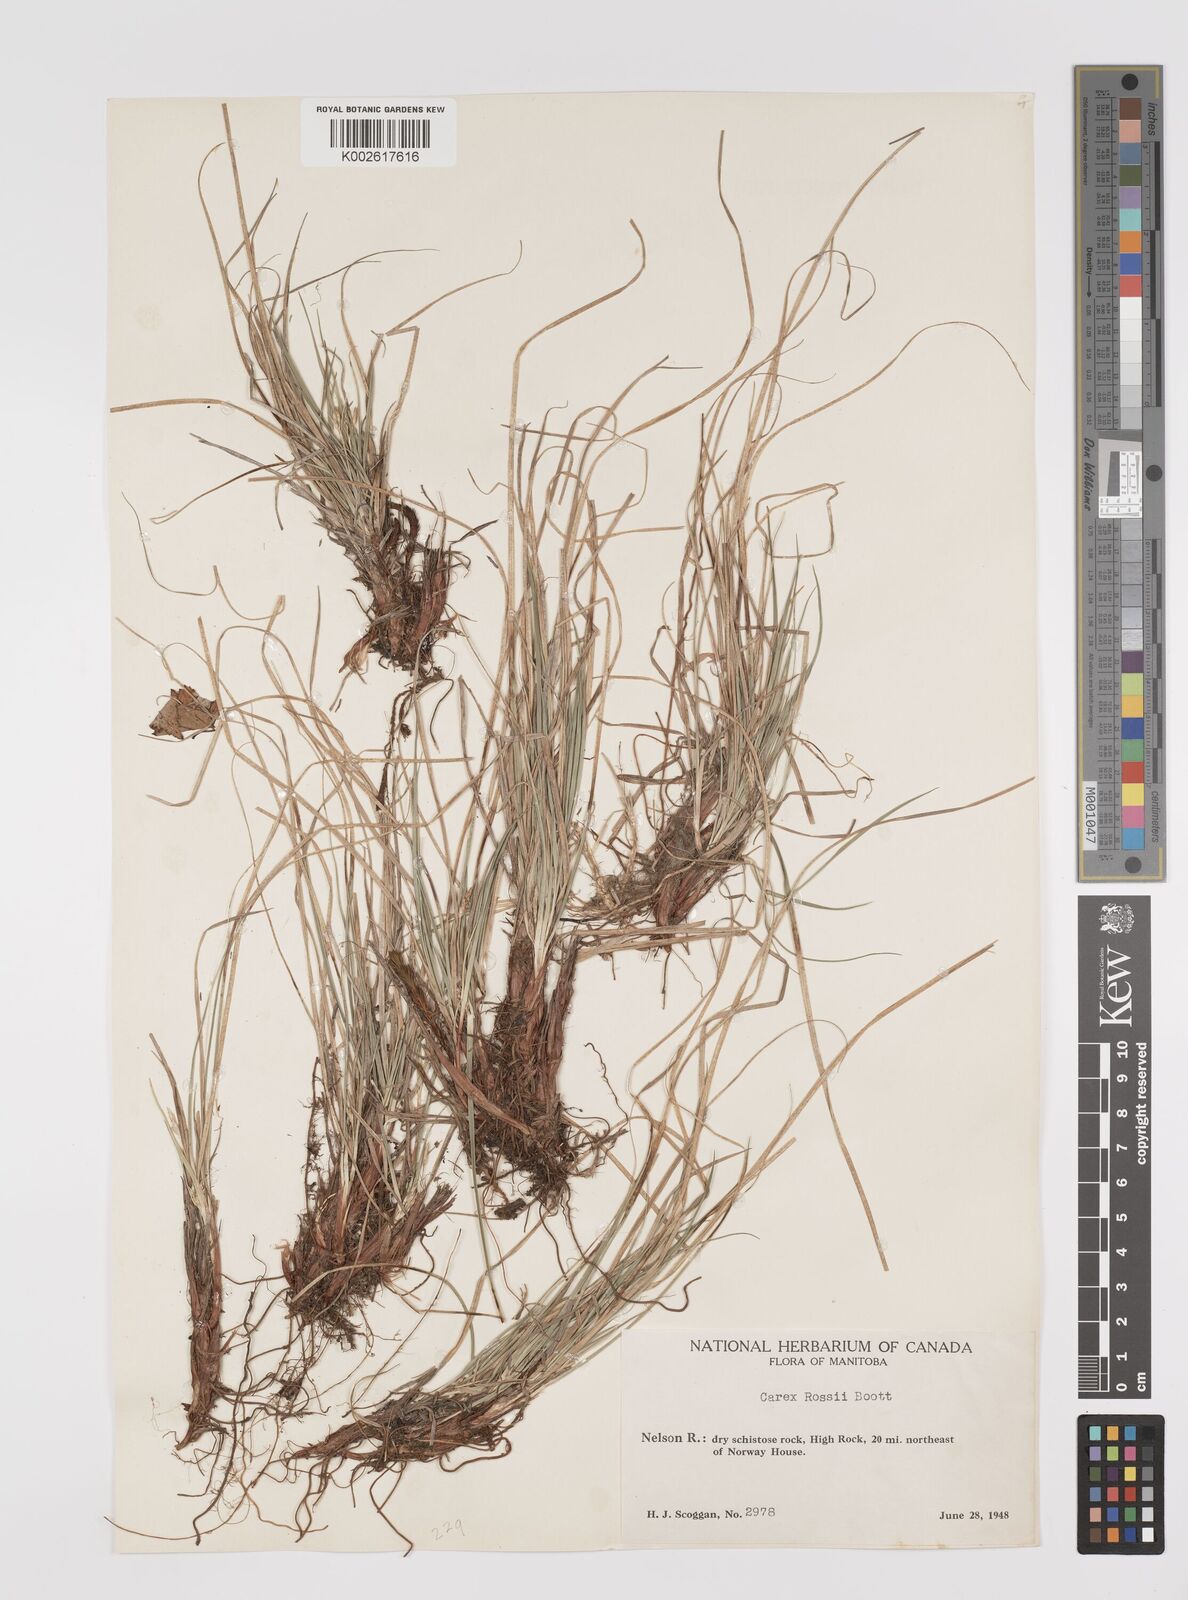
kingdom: Plantae
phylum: Tracheophyta
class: Liliopsida
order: Poales
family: Cyperaceae
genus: Carex
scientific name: Carex rossii
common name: Ross' sedge
